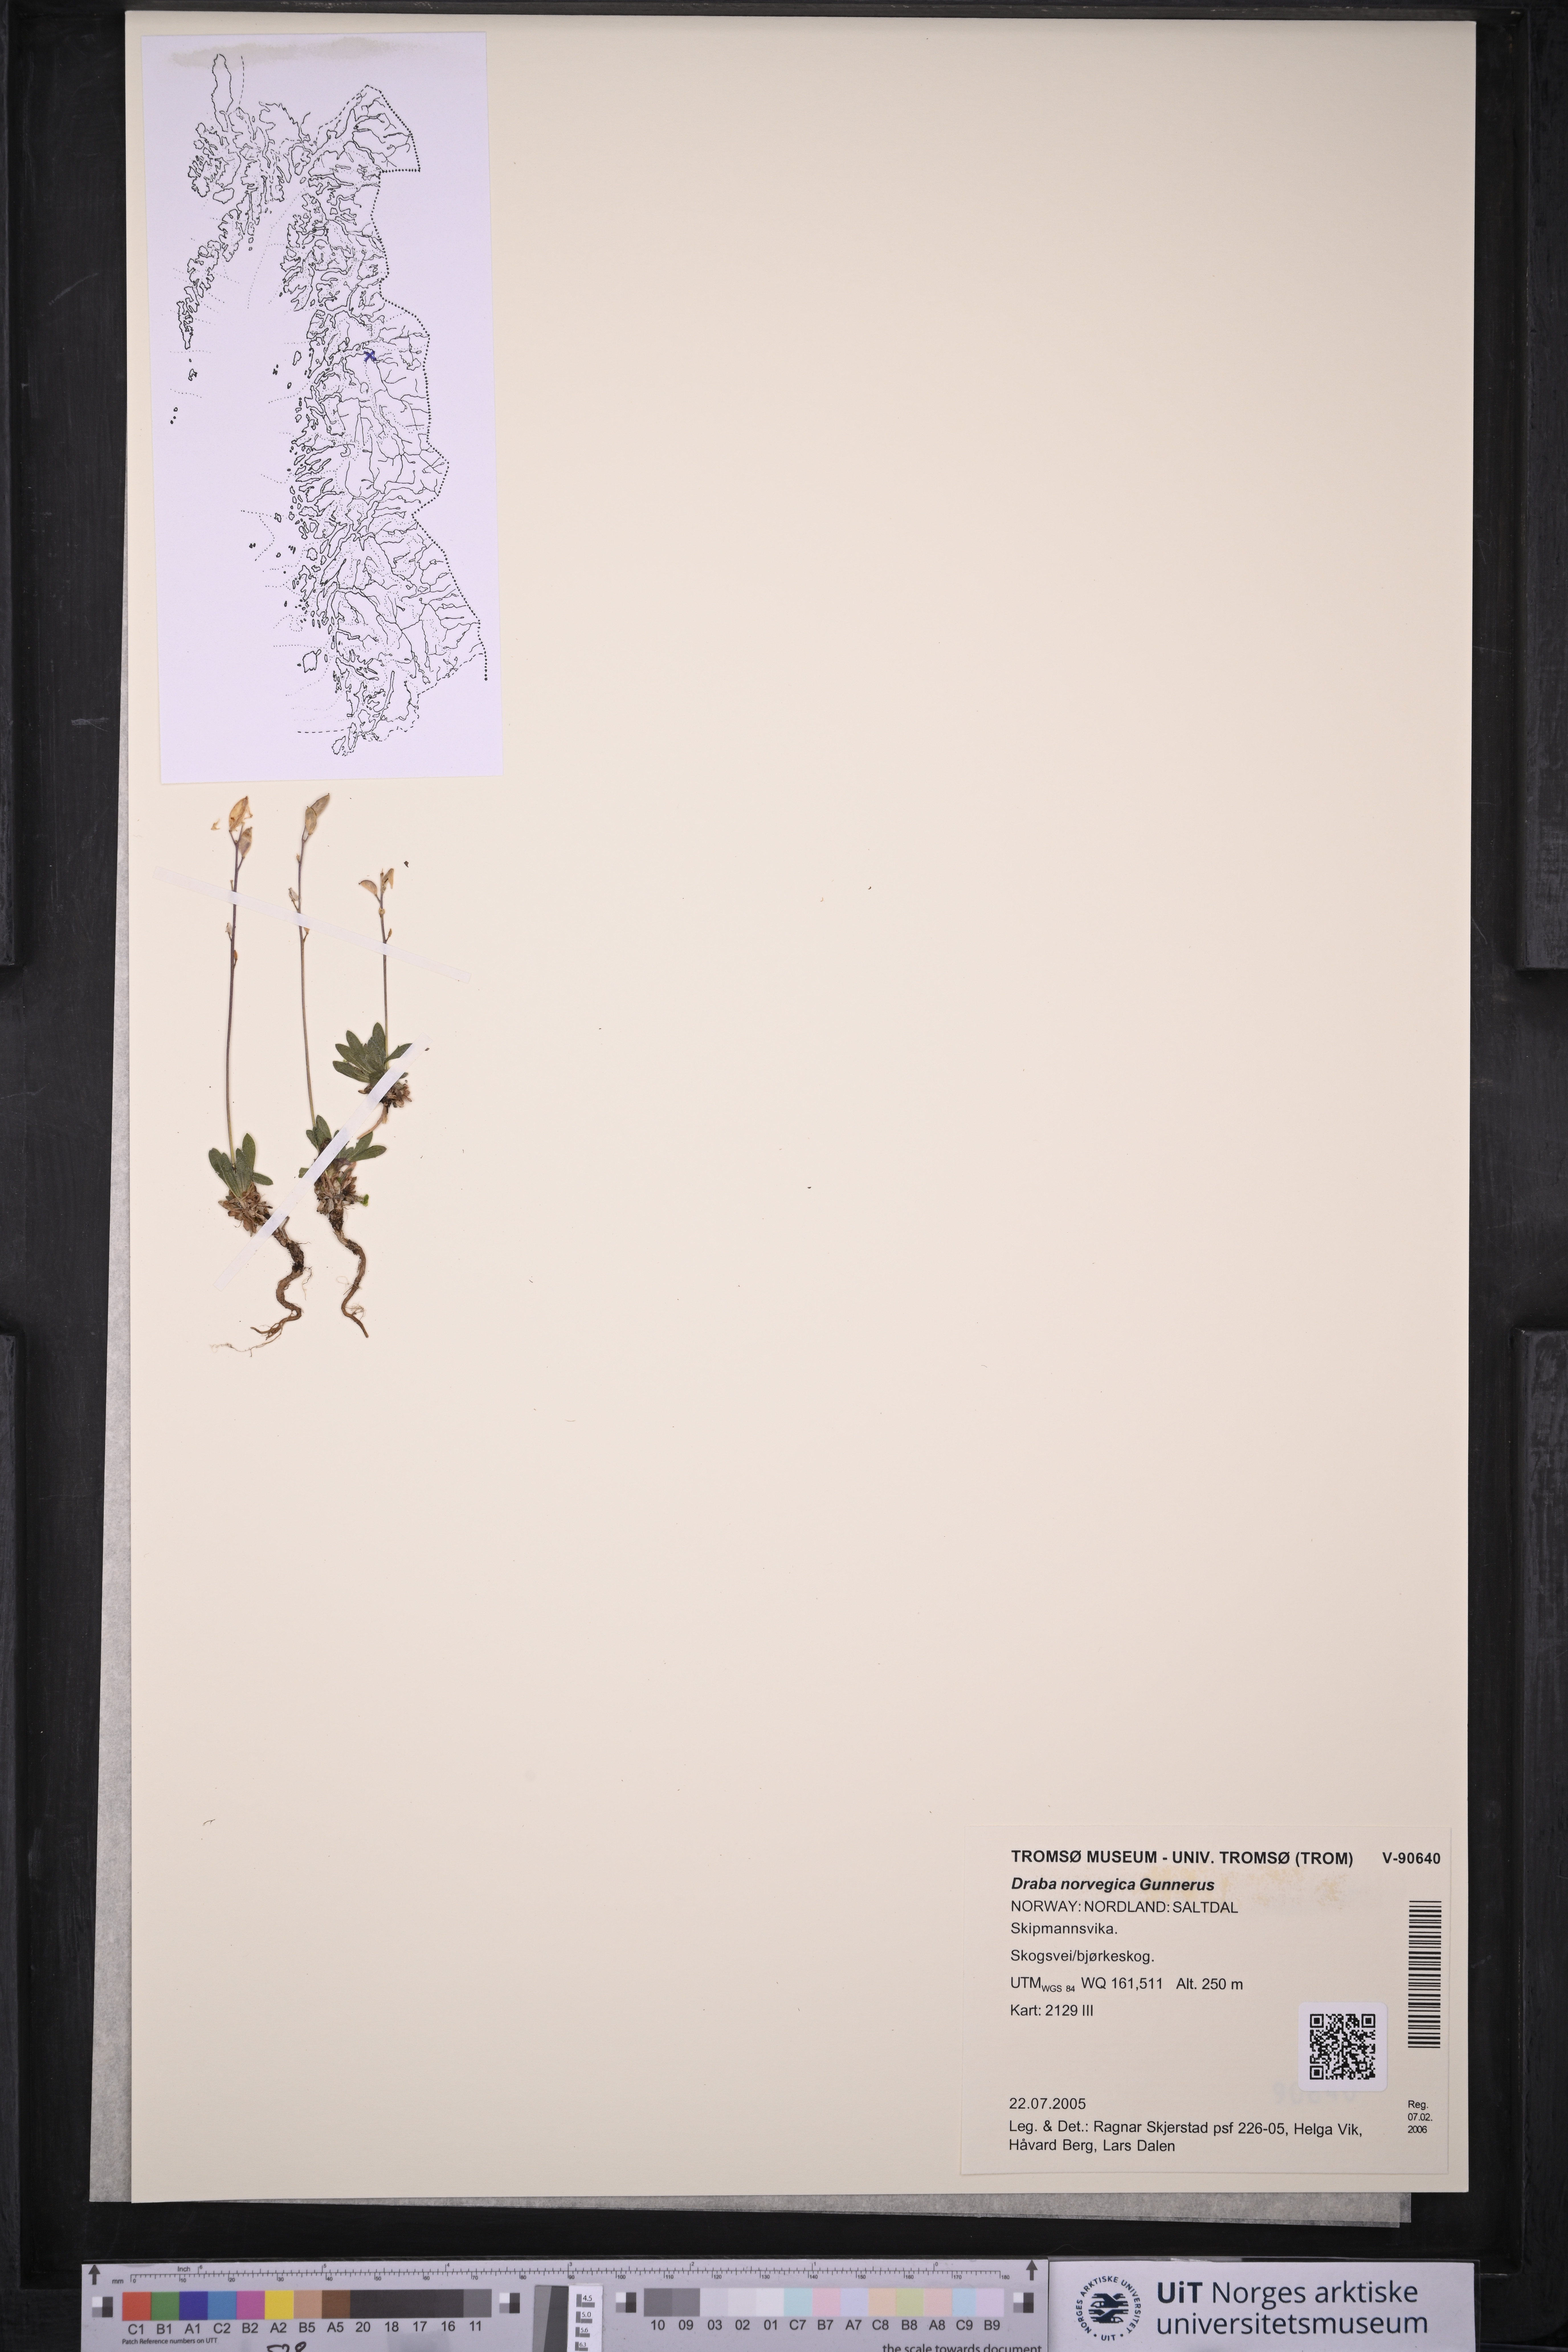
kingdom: Plantae
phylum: Tracheophyta
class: Magnoliopsida
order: Brassicales
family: Brassicaceae
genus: Draba
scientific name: Draba norvegica
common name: Rock whitlowgrass
